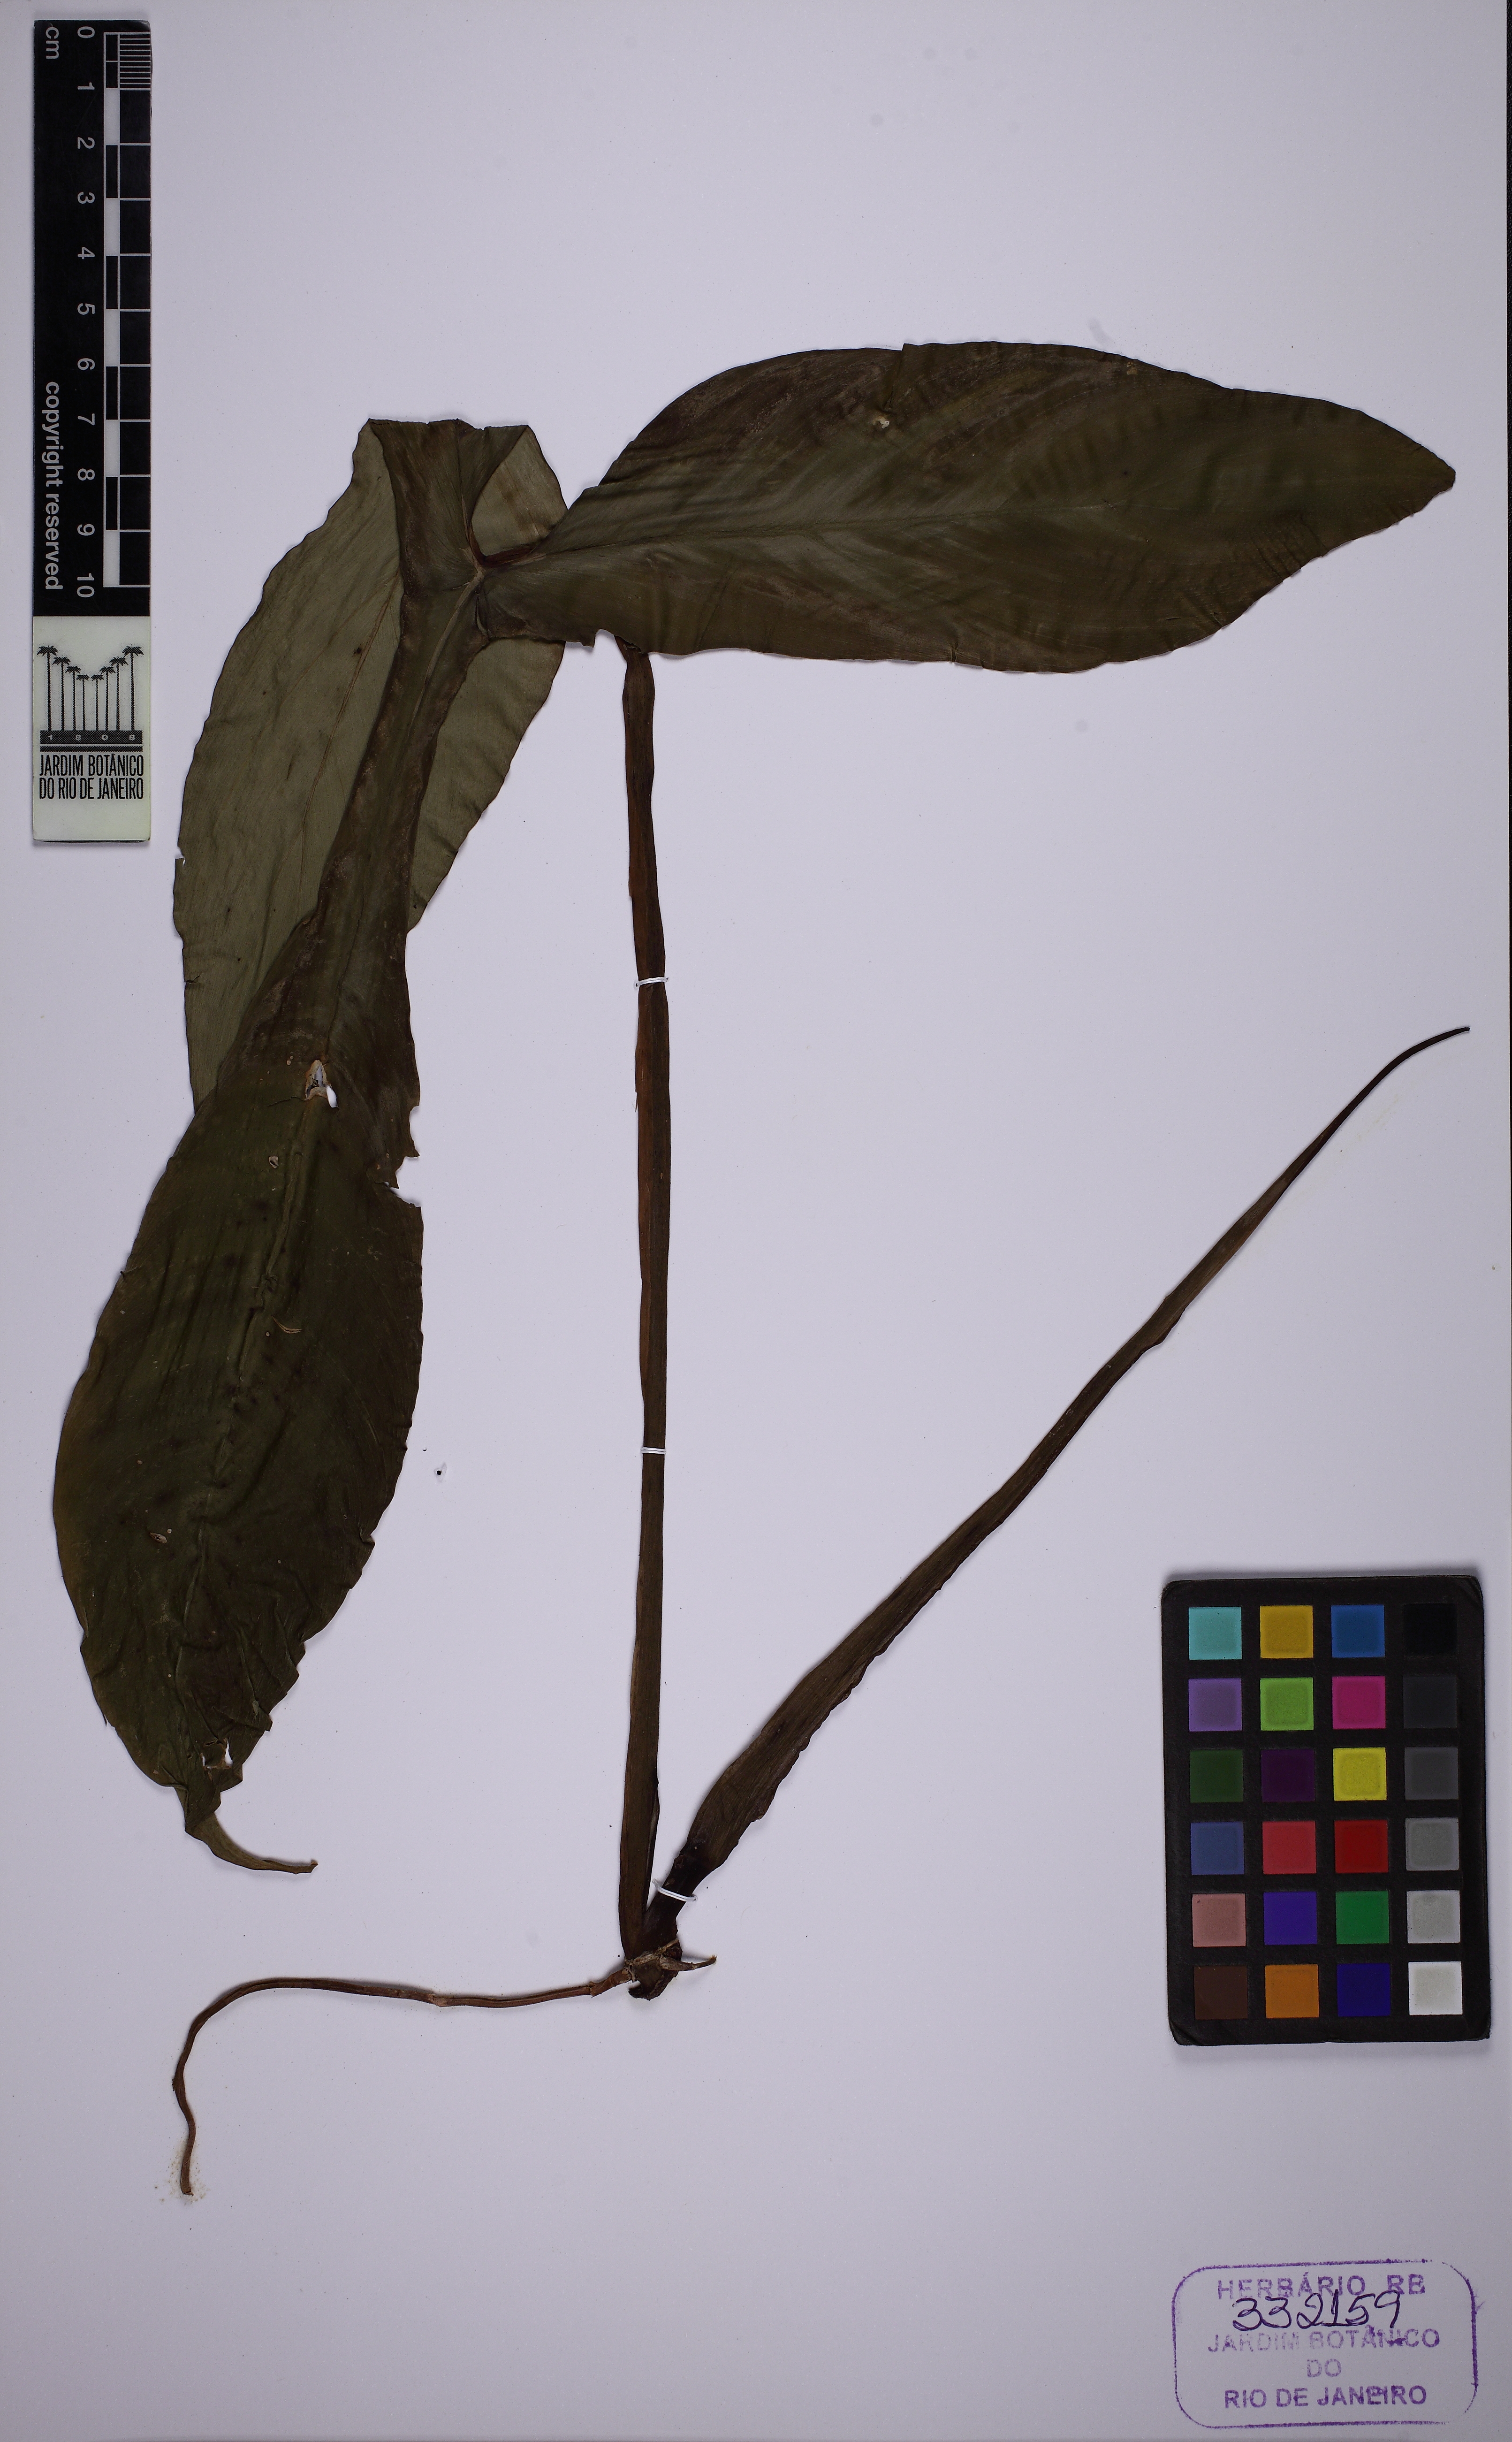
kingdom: Plantae
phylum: Tracheophyta
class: Liliopsida
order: Alismatales
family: Araceae
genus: Philodendron
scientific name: Philodendron camposportoanum
